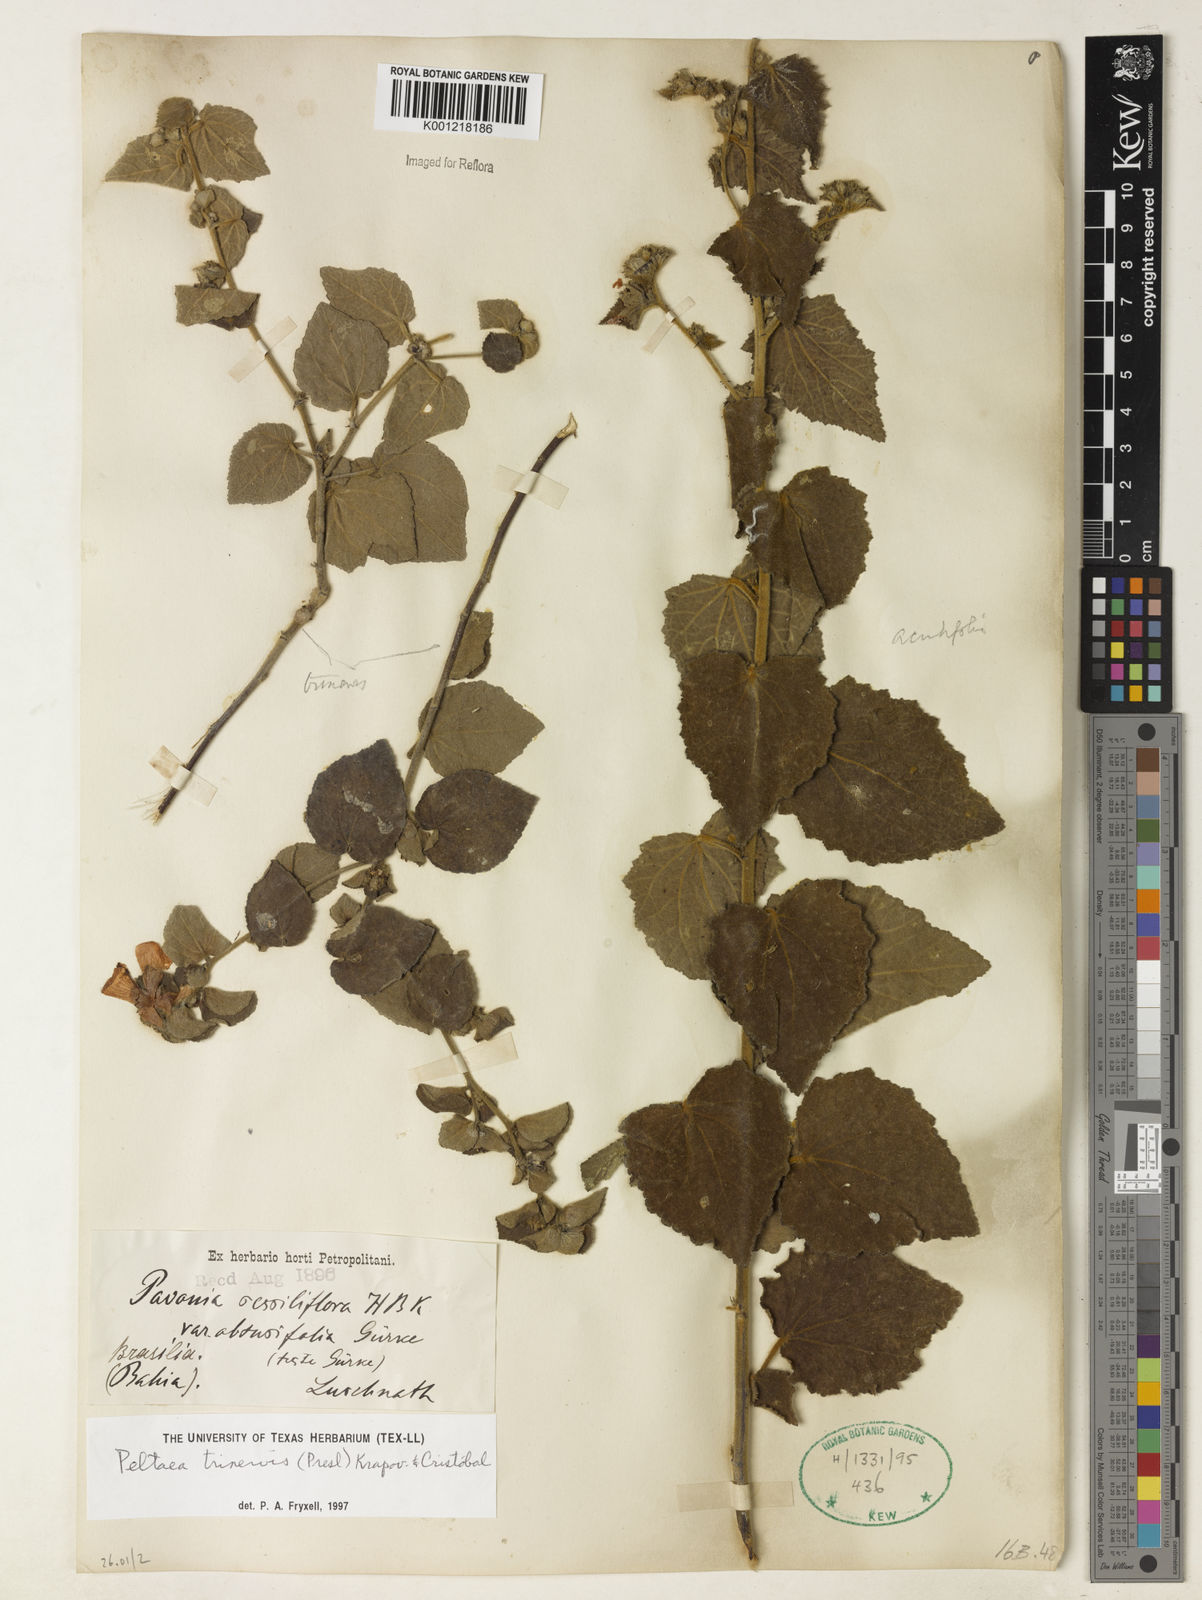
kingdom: Plantae
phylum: Tracheophyta
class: Magnoliopsida
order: Malvales
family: Malvaceae
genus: Peltaea
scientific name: Peltaea
